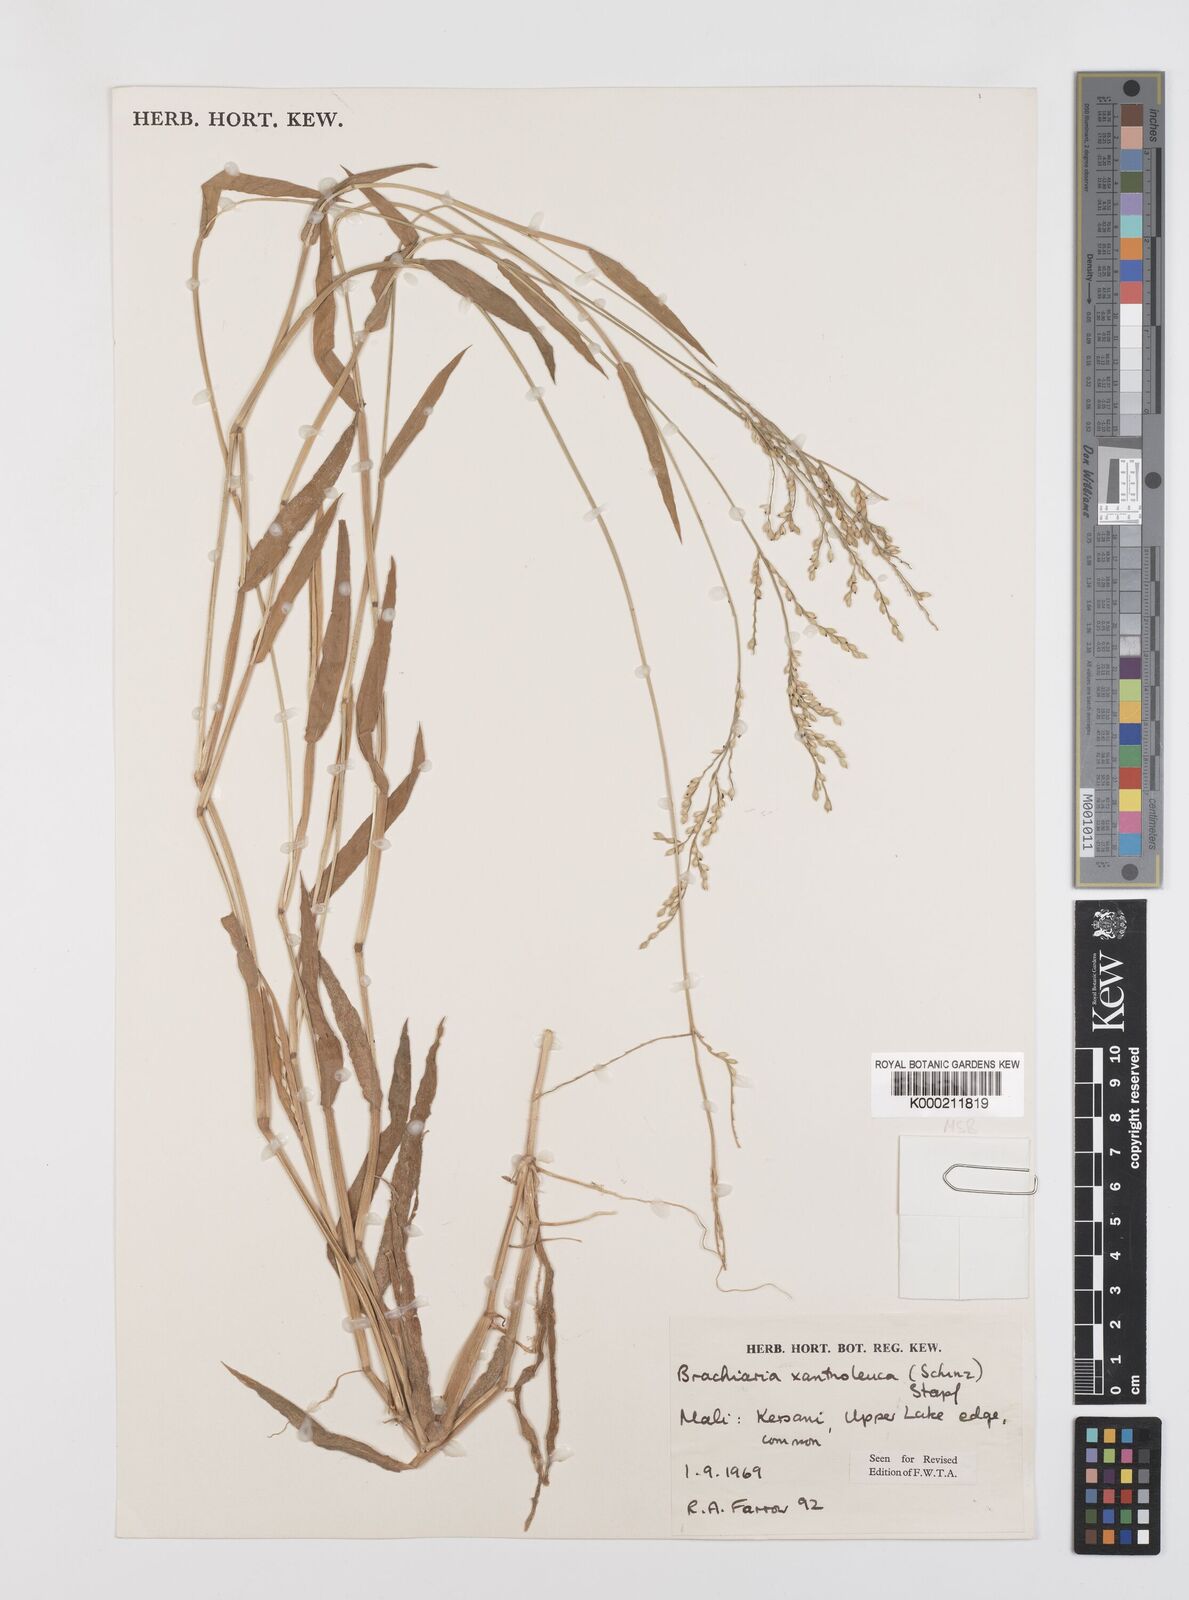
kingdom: Plantae
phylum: Tracheophyta
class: Liliopsida
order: Poales
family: Poaceae
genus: Urochloa
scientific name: Urochloa xantholeuca
